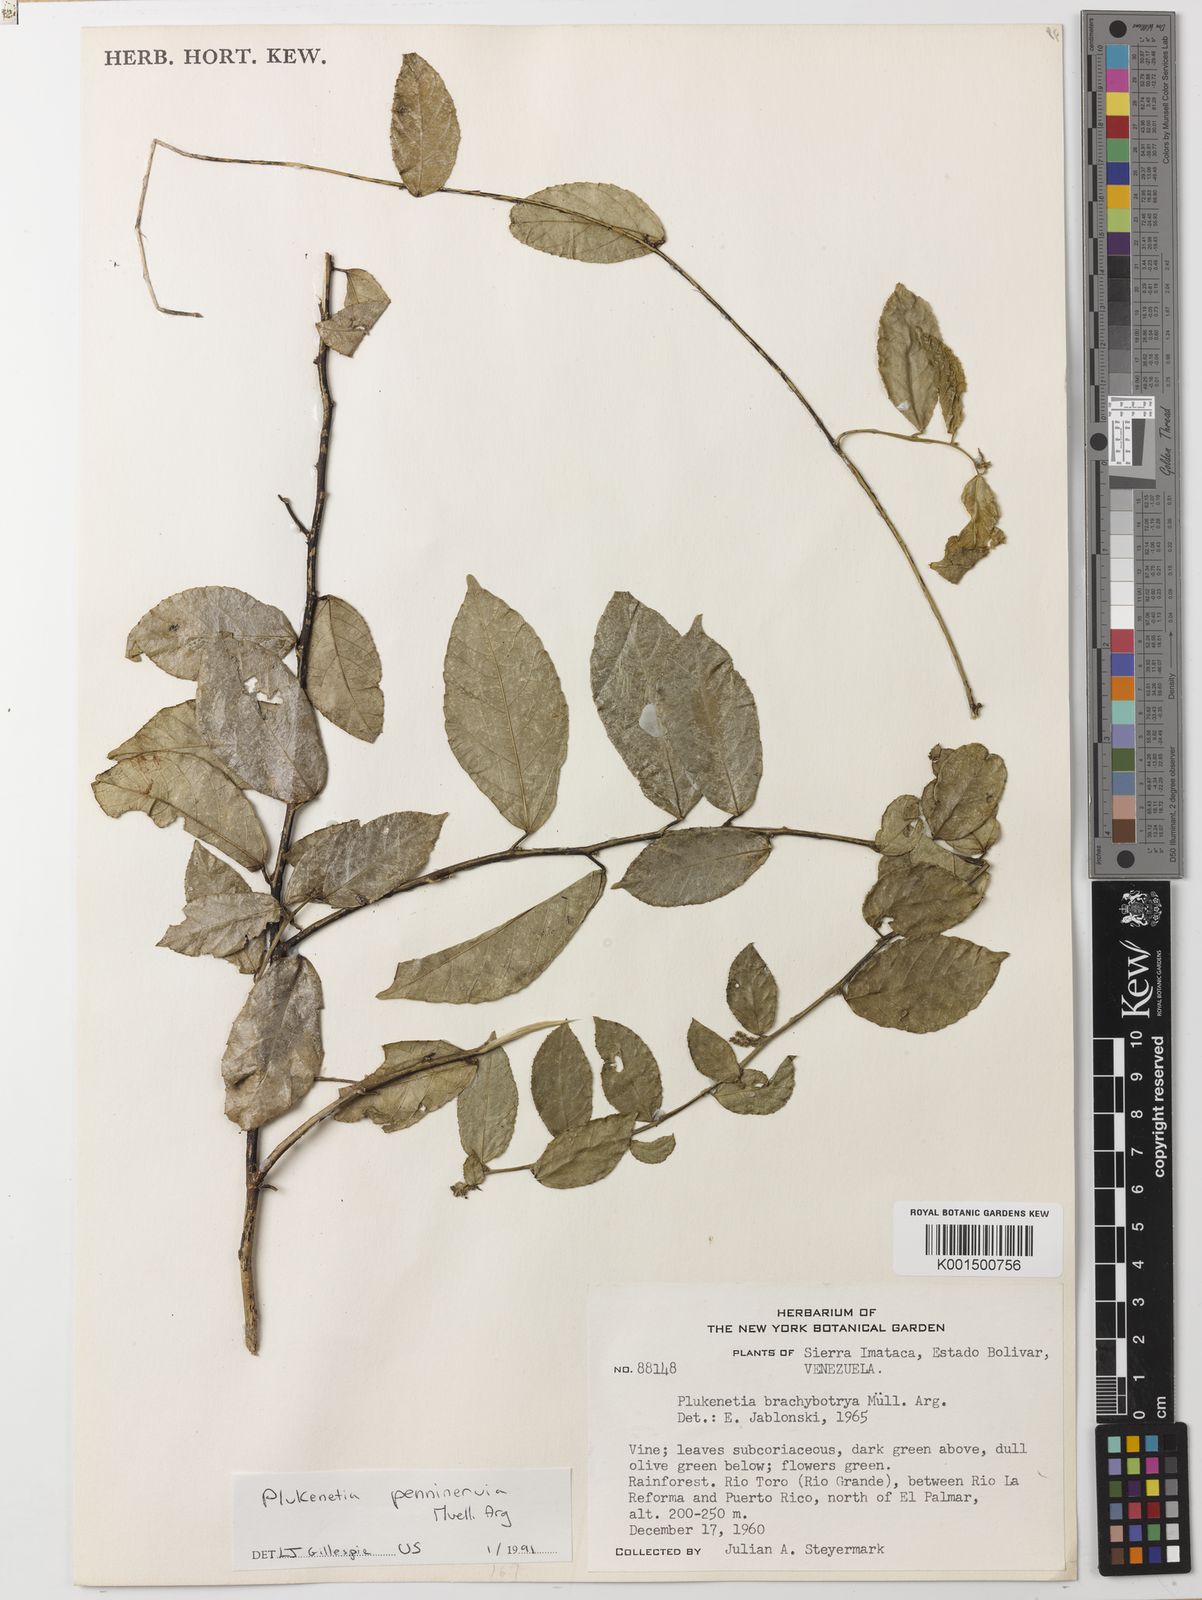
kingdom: Plantae
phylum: Tracheophyta
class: Magnoliopsida
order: Malpighiales
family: Euphorbiaceae
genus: Plukenetia
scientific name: Plukenetia penninervia
